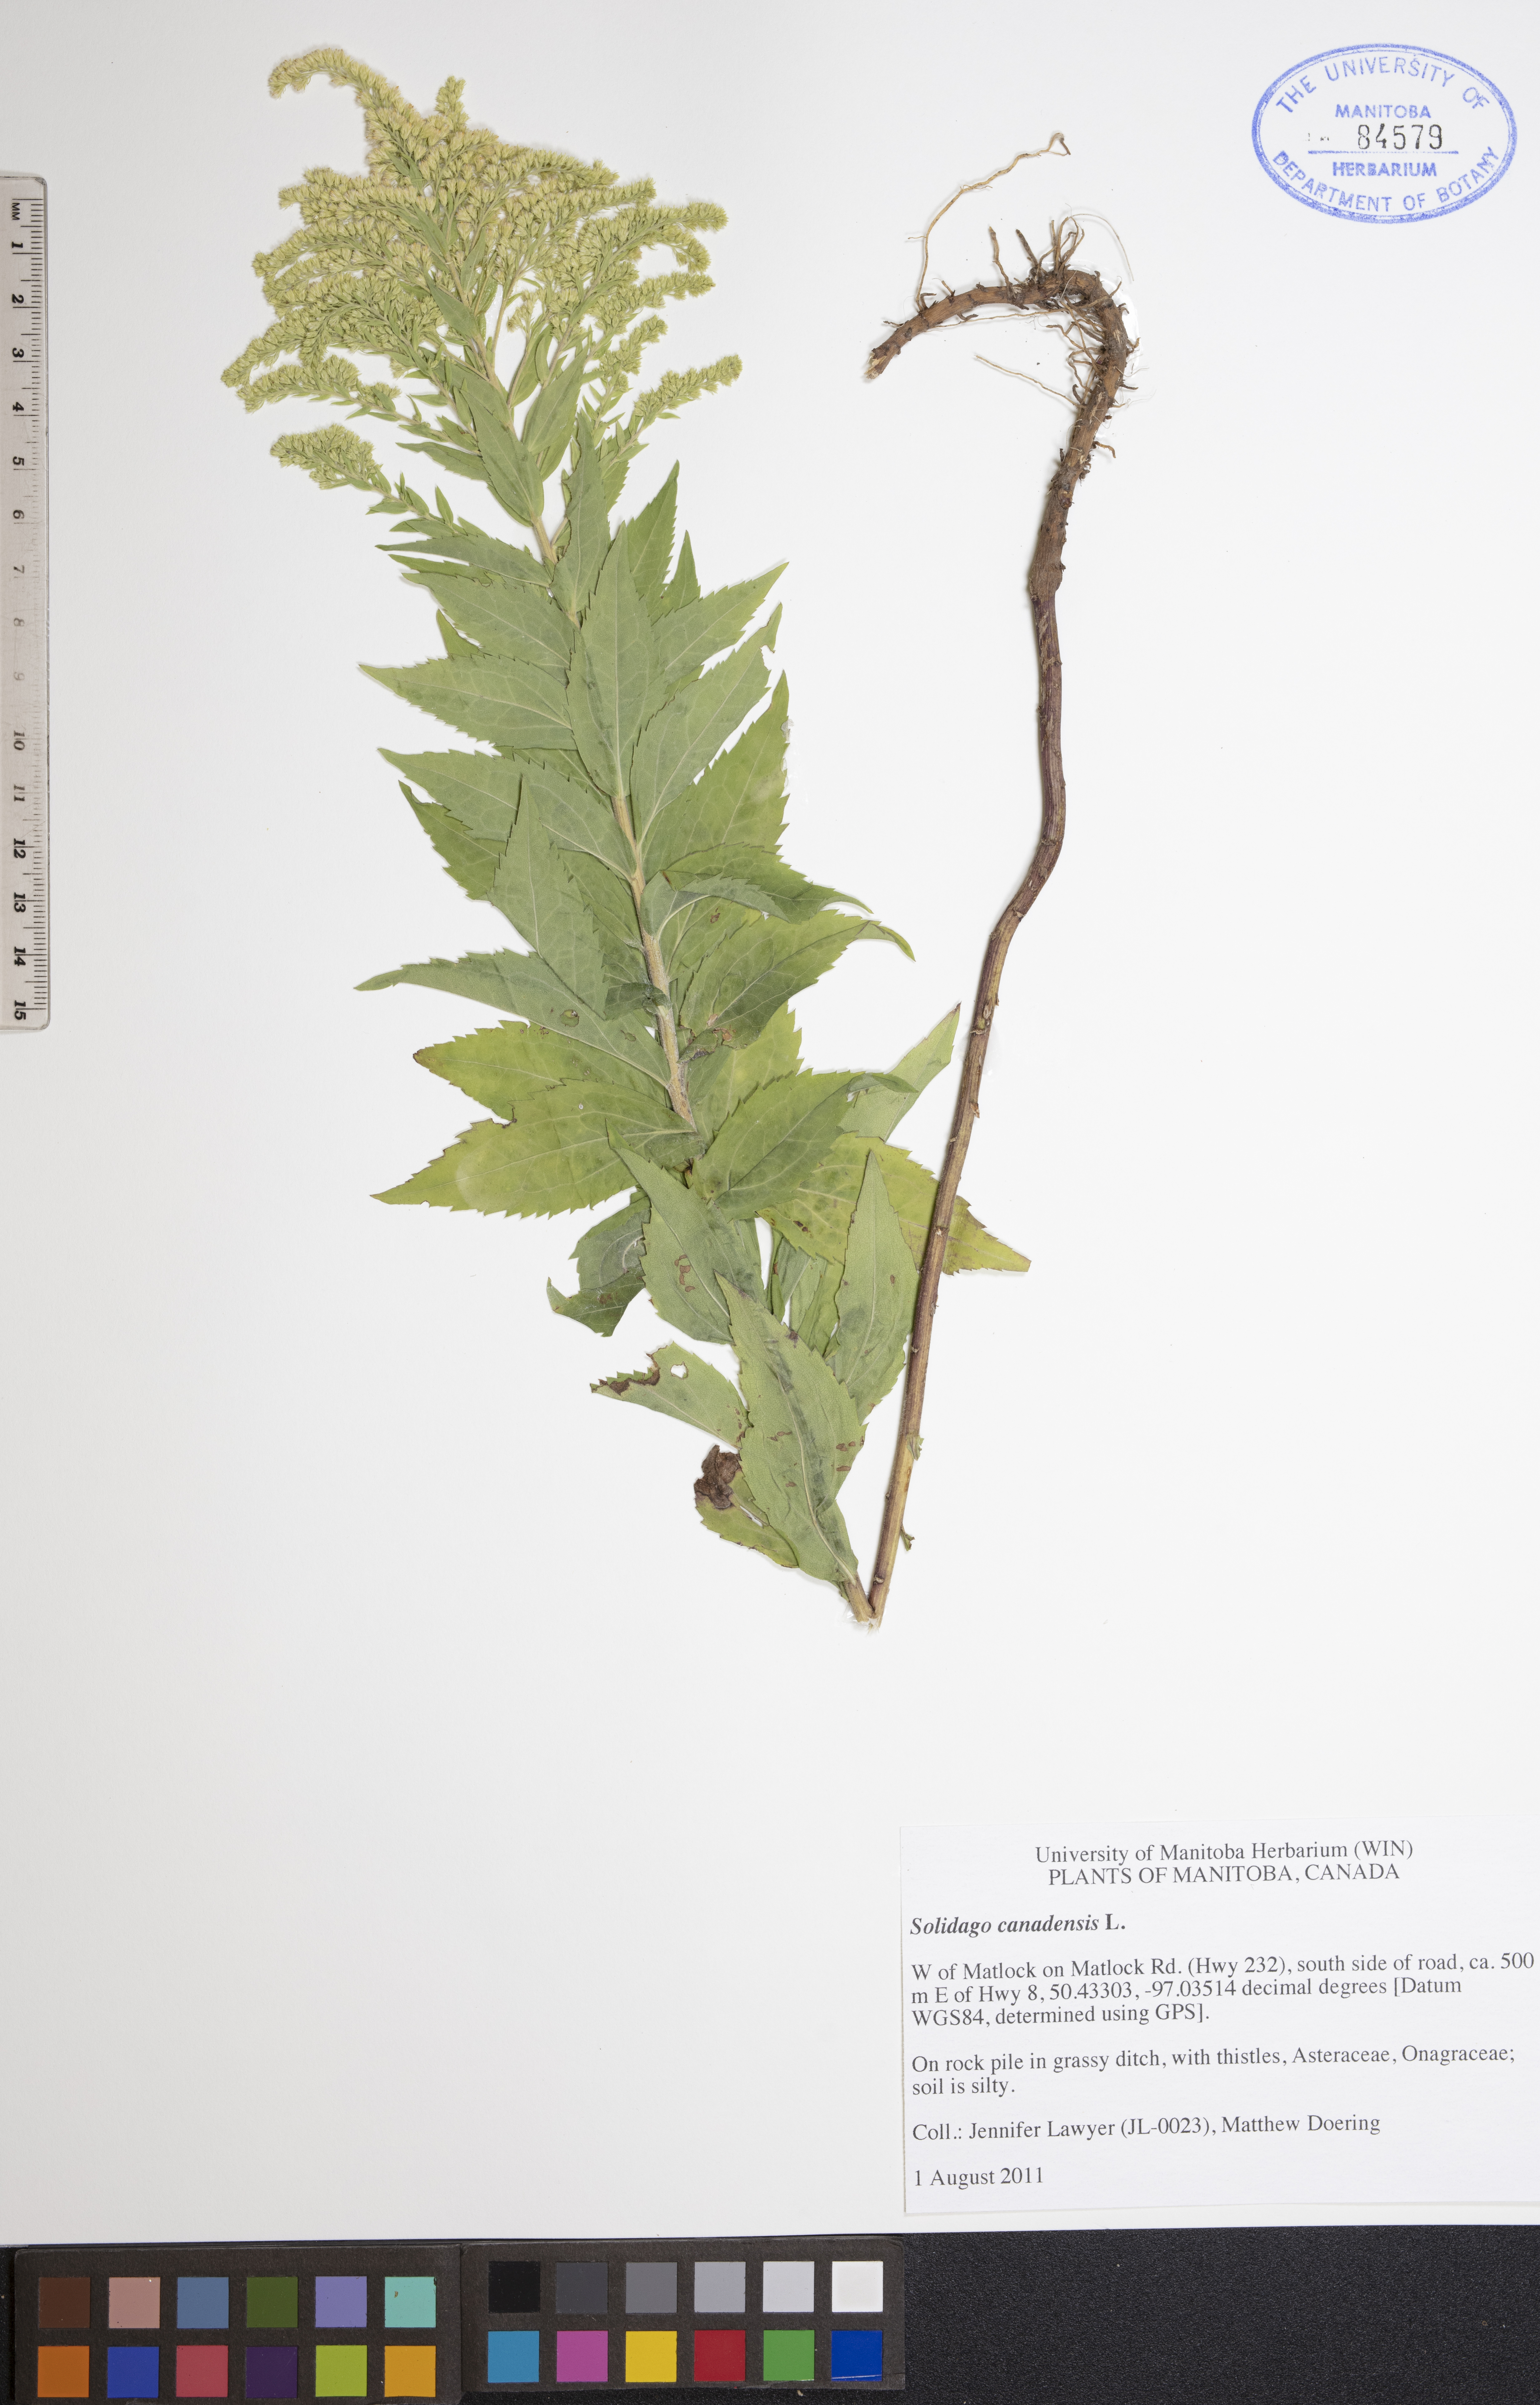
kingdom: Plantae
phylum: Tracheophyta
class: Magnoliopsida
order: Asterales
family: Asteraceae
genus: Solidago
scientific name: Solidago canadensis
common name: Canada goldenrod
